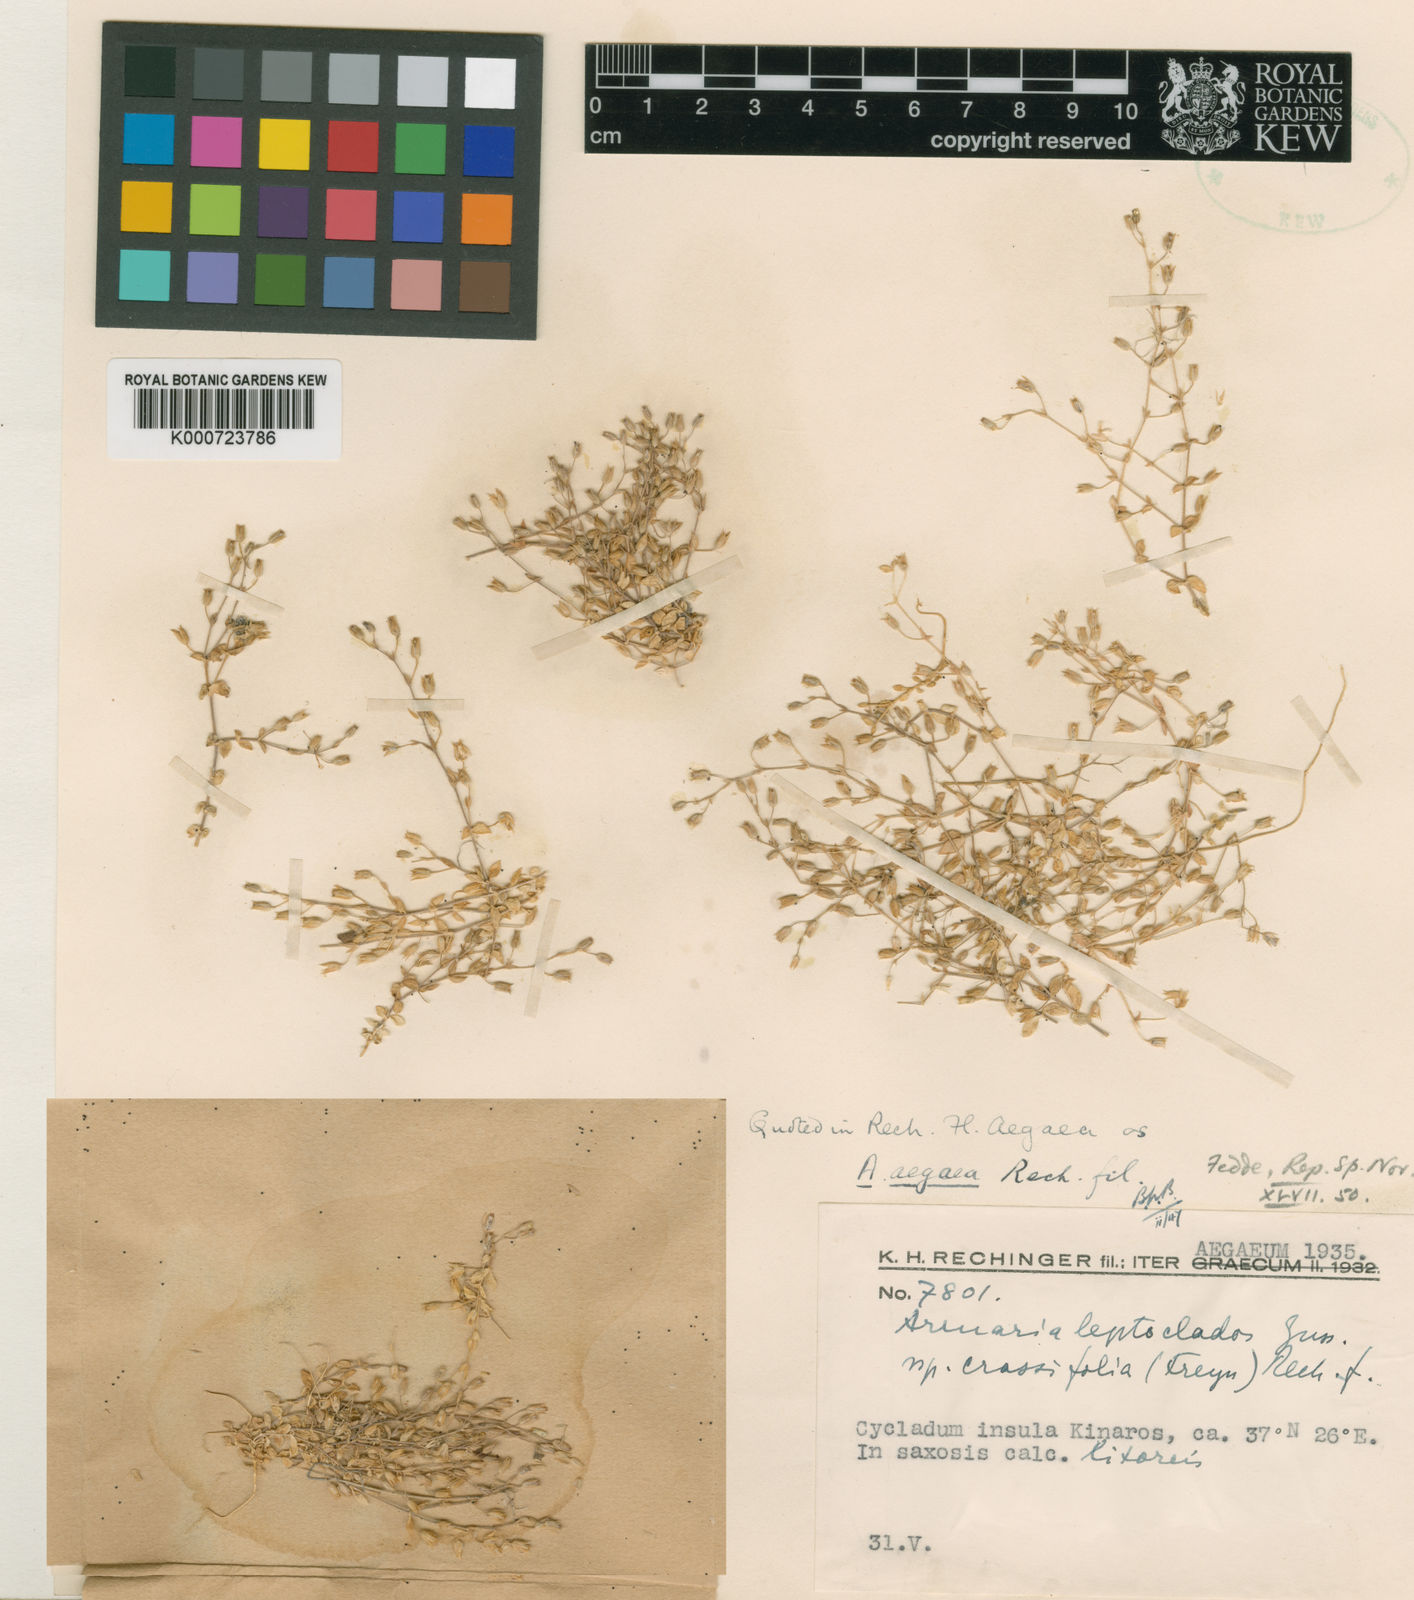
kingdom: Plantae
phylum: Tracheophyta
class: Magnoliopsida
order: Caryophyllales
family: Caryophyllaceae
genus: Arenaria
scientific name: Arenaria leptoclados
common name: Thyme-leaved sandwort
